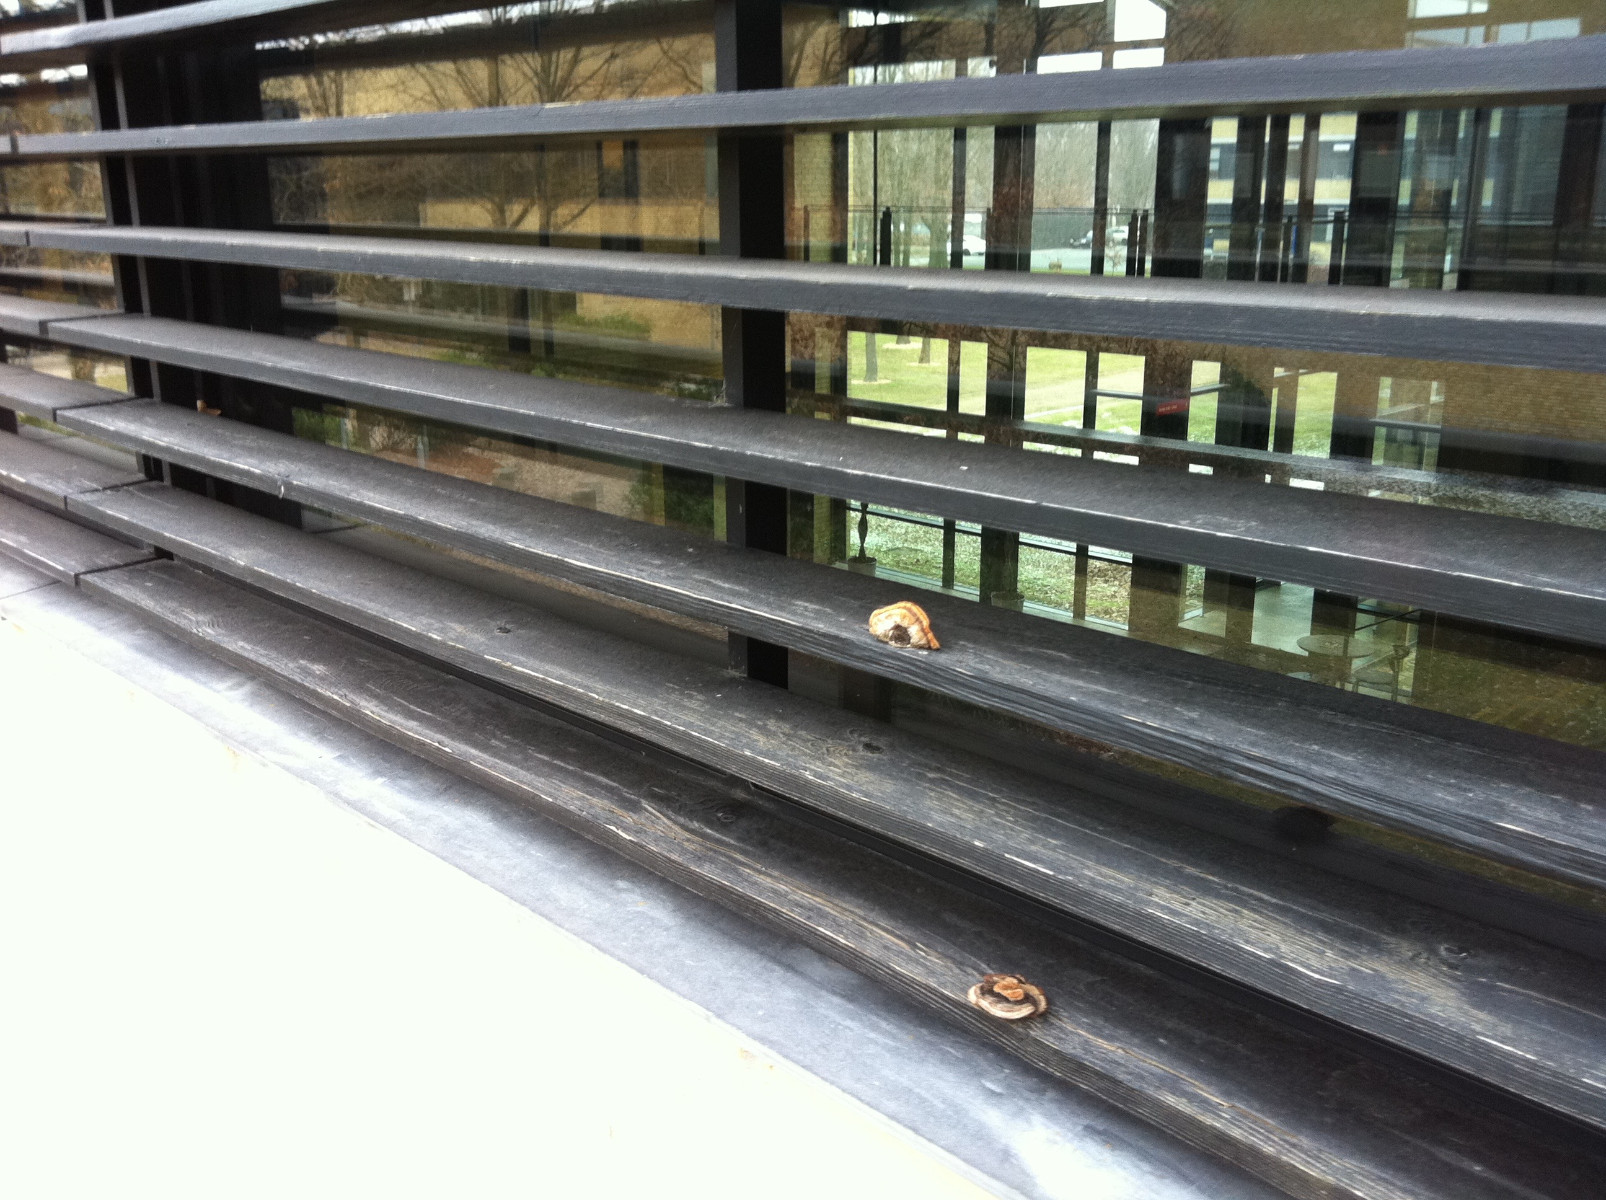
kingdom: Fungi
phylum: Basidiomycota
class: Agaricomycetes
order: Gloeophyllales
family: Gloeophyllaceae
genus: Gloeophyllum
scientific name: Gloeophyllum sepiarium
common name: fyrre-korkhat
